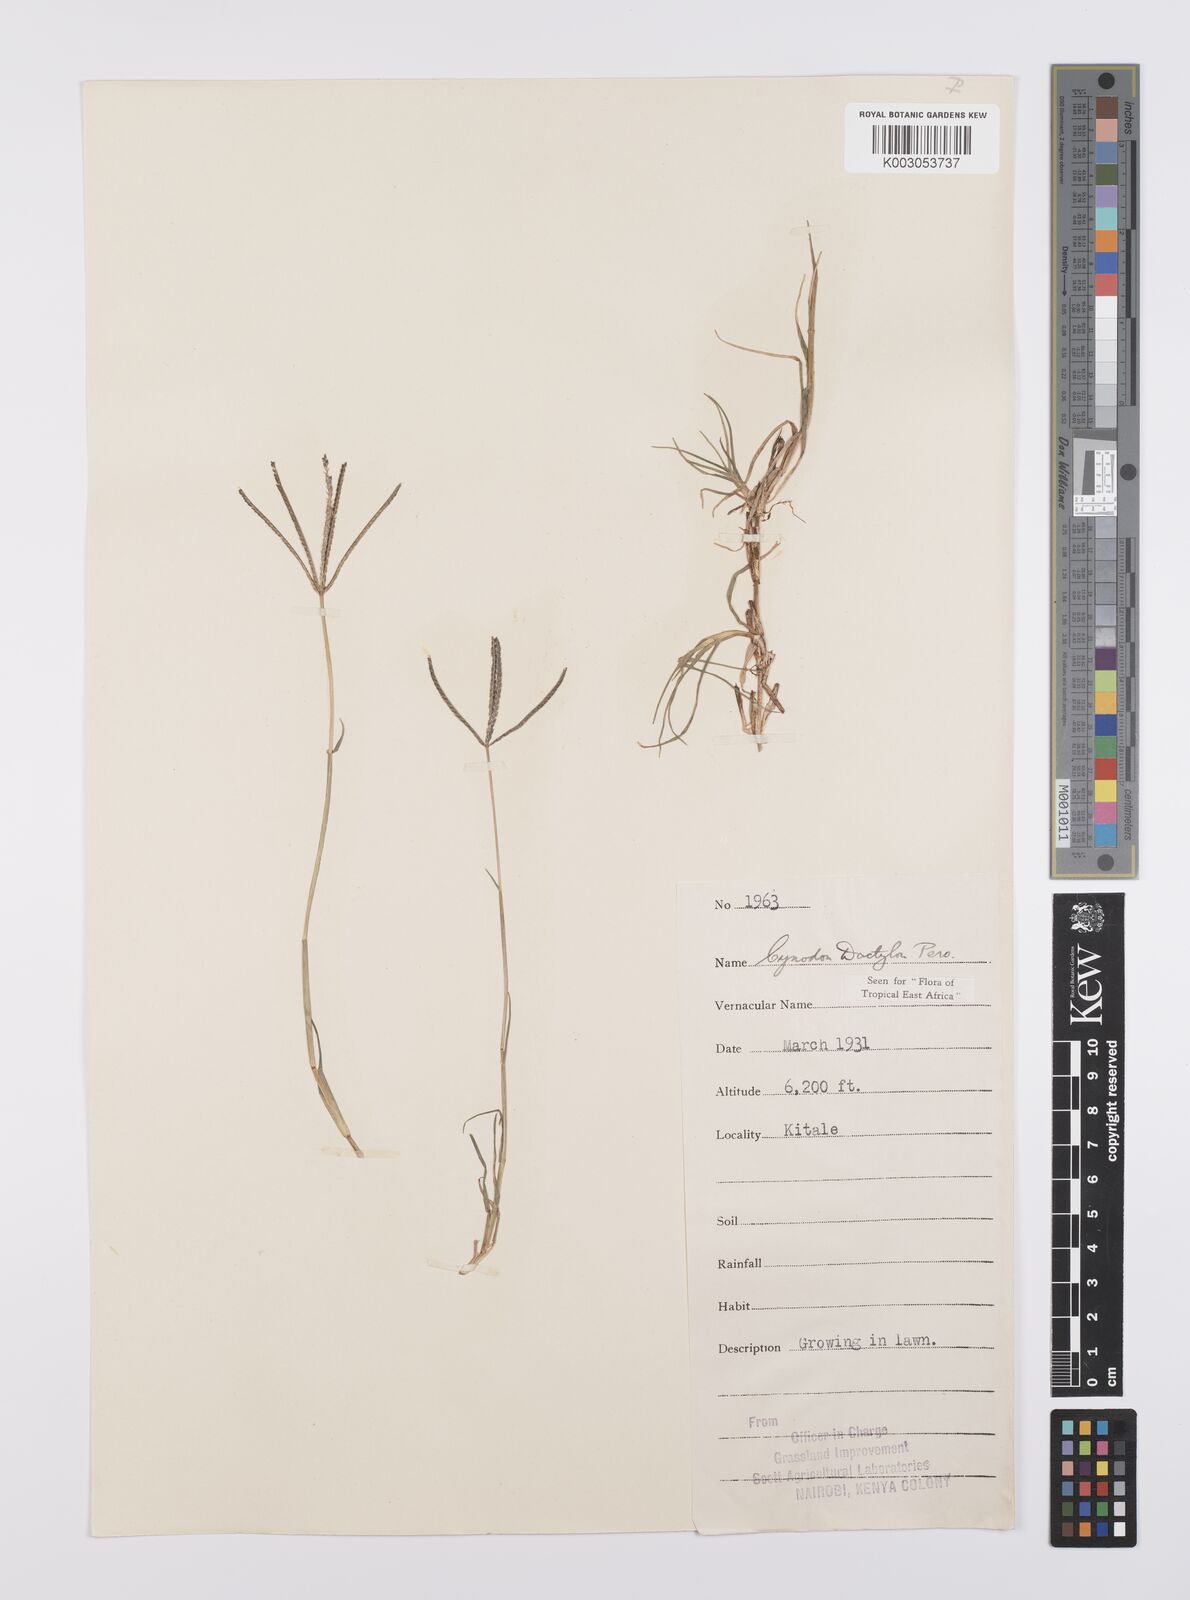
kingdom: Plantae
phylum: Tracheophyta
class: Liliopsida
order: Poales
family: Poaceae
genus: Cynodon
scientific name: Cynodon dactylon
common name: Bermuda grass
